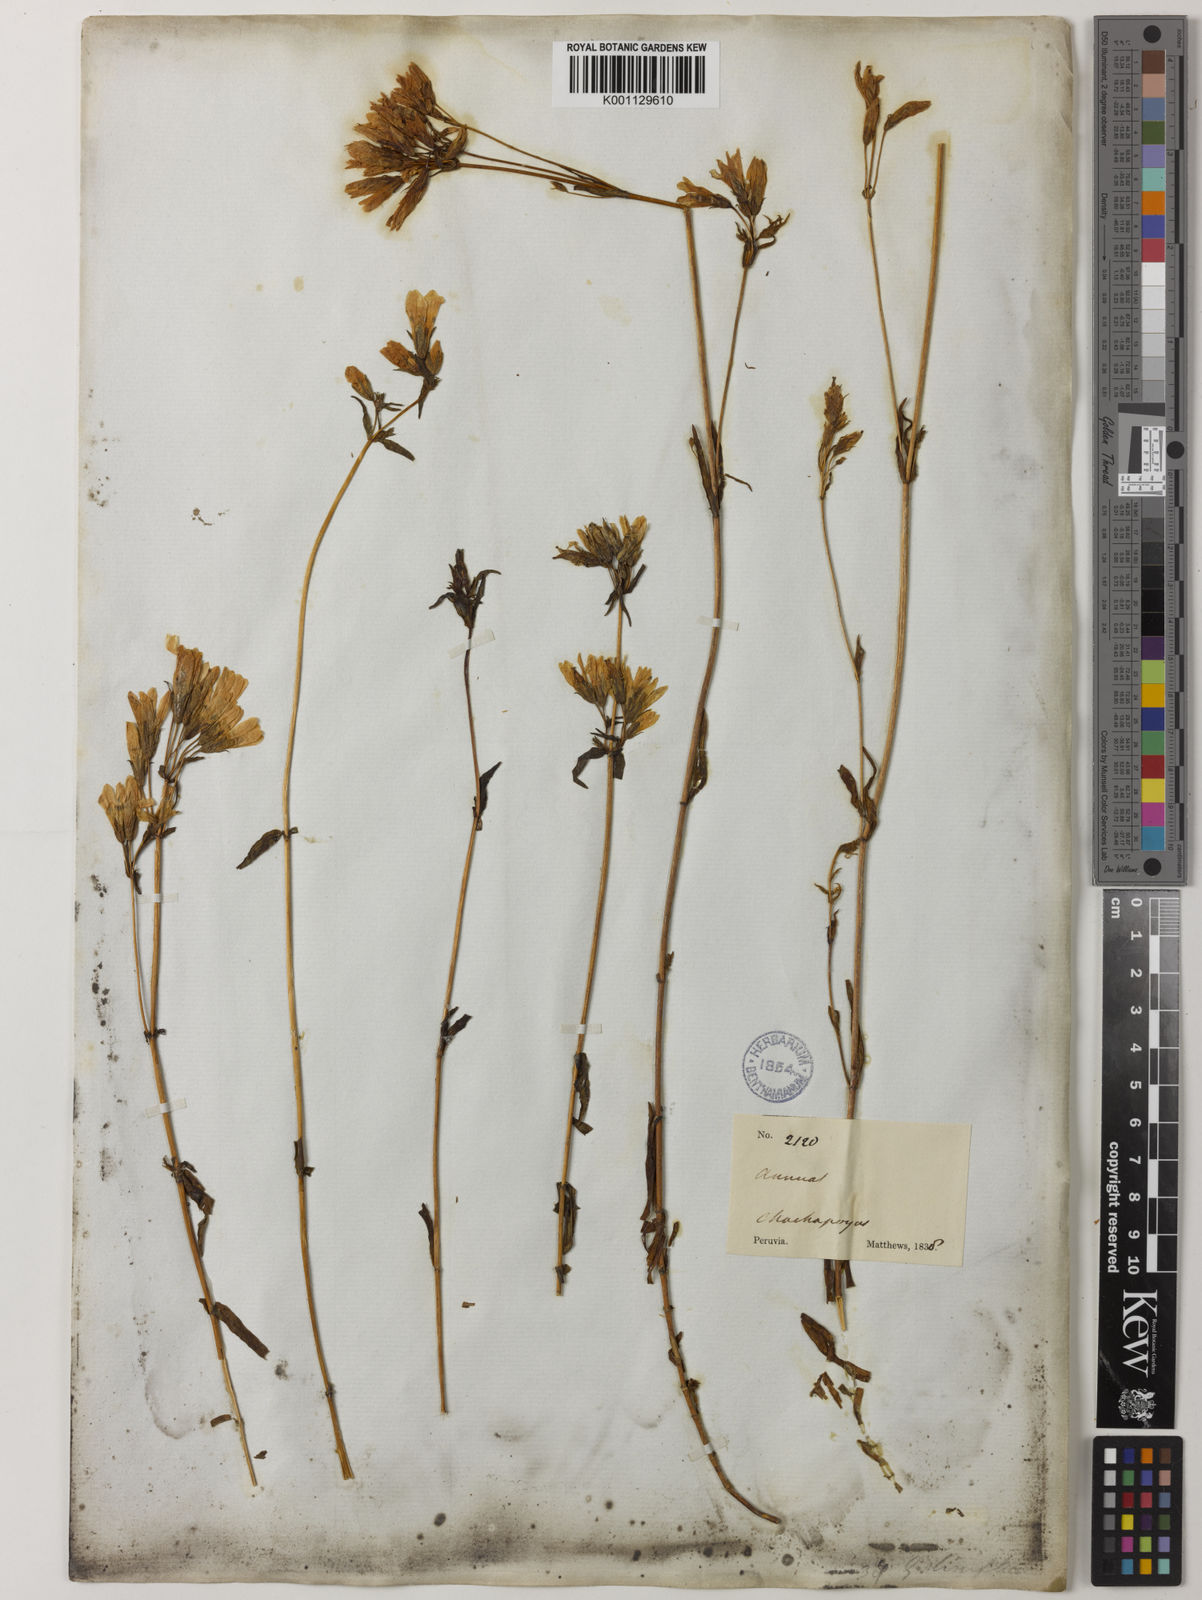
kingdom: Plantae
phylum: Tracheophyta
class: Magnoliopsida
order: Gentianales
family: Gentianaceae
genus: Gentianella
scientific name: Gentianella liniflora
